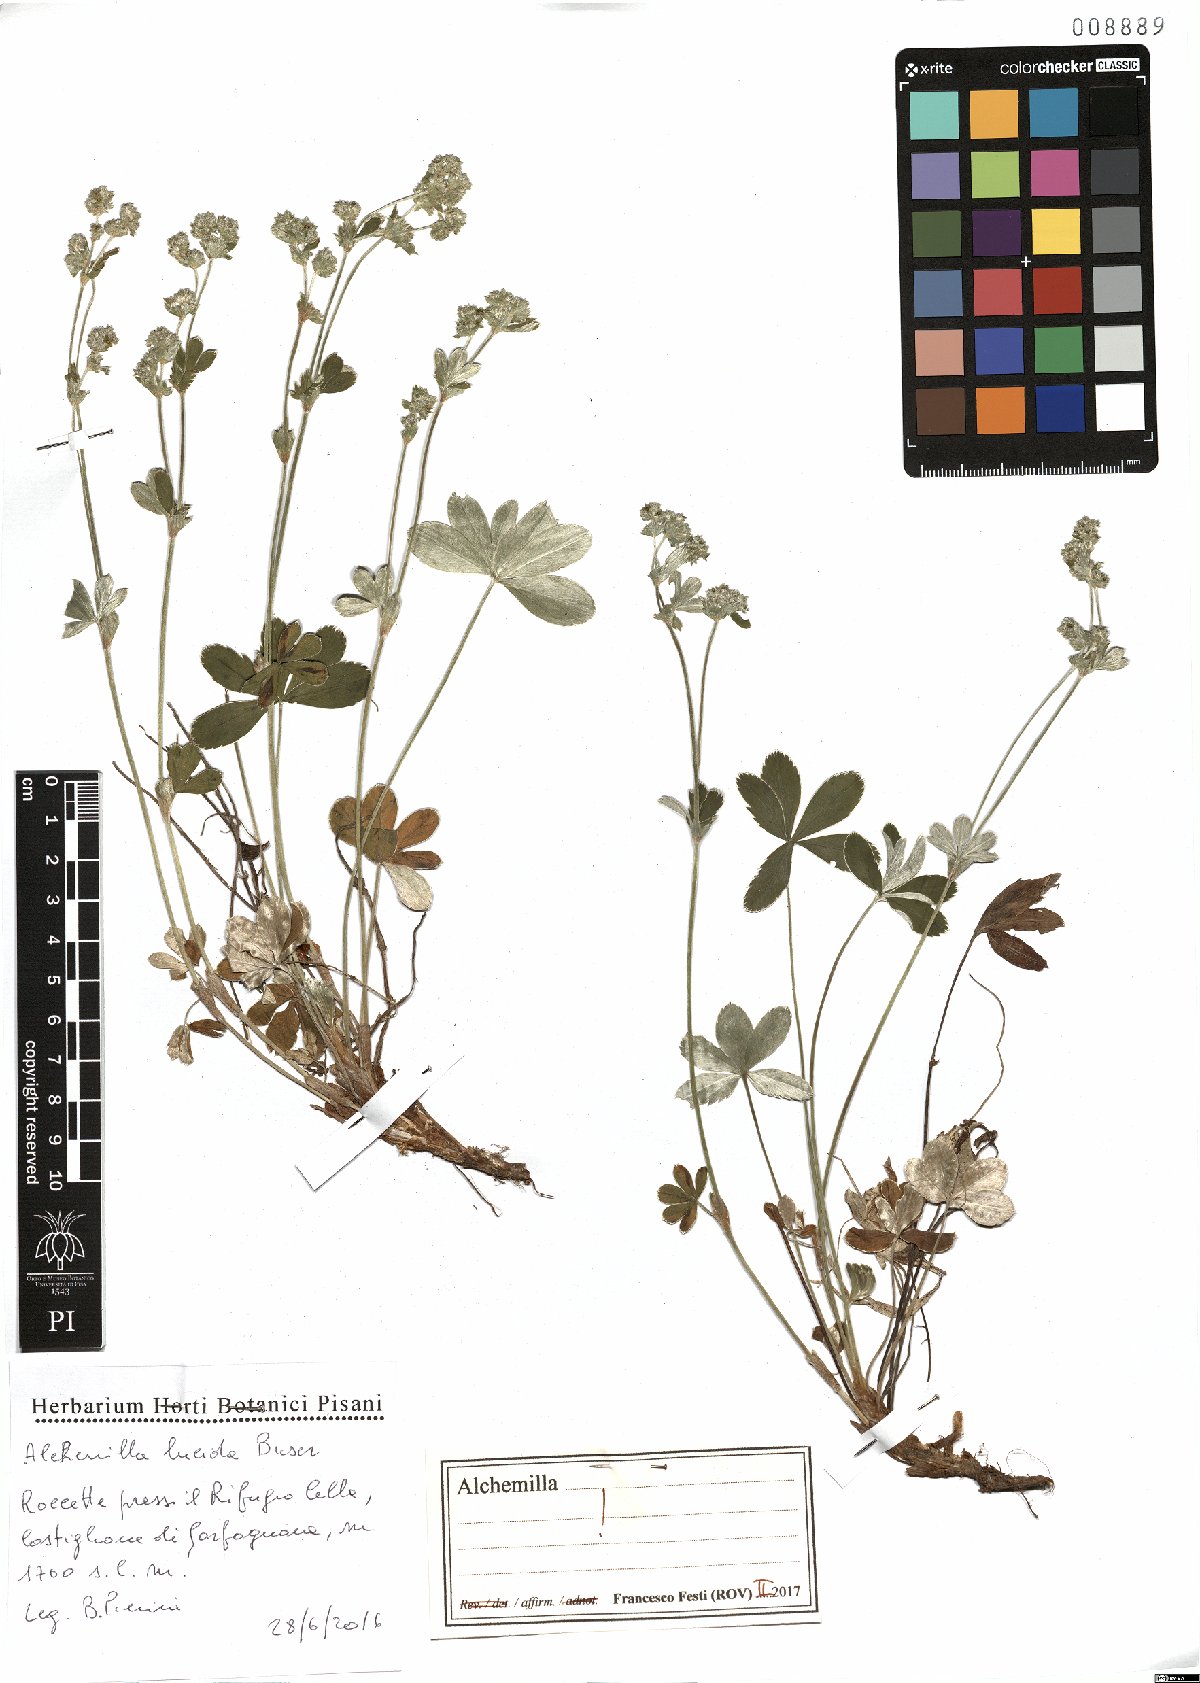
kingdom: Plantae
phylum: Tracheophyta
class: Magnoliopsida
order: Rosales
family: Rosaceae
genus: Alchemilla
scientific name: Alchemilla lucida
